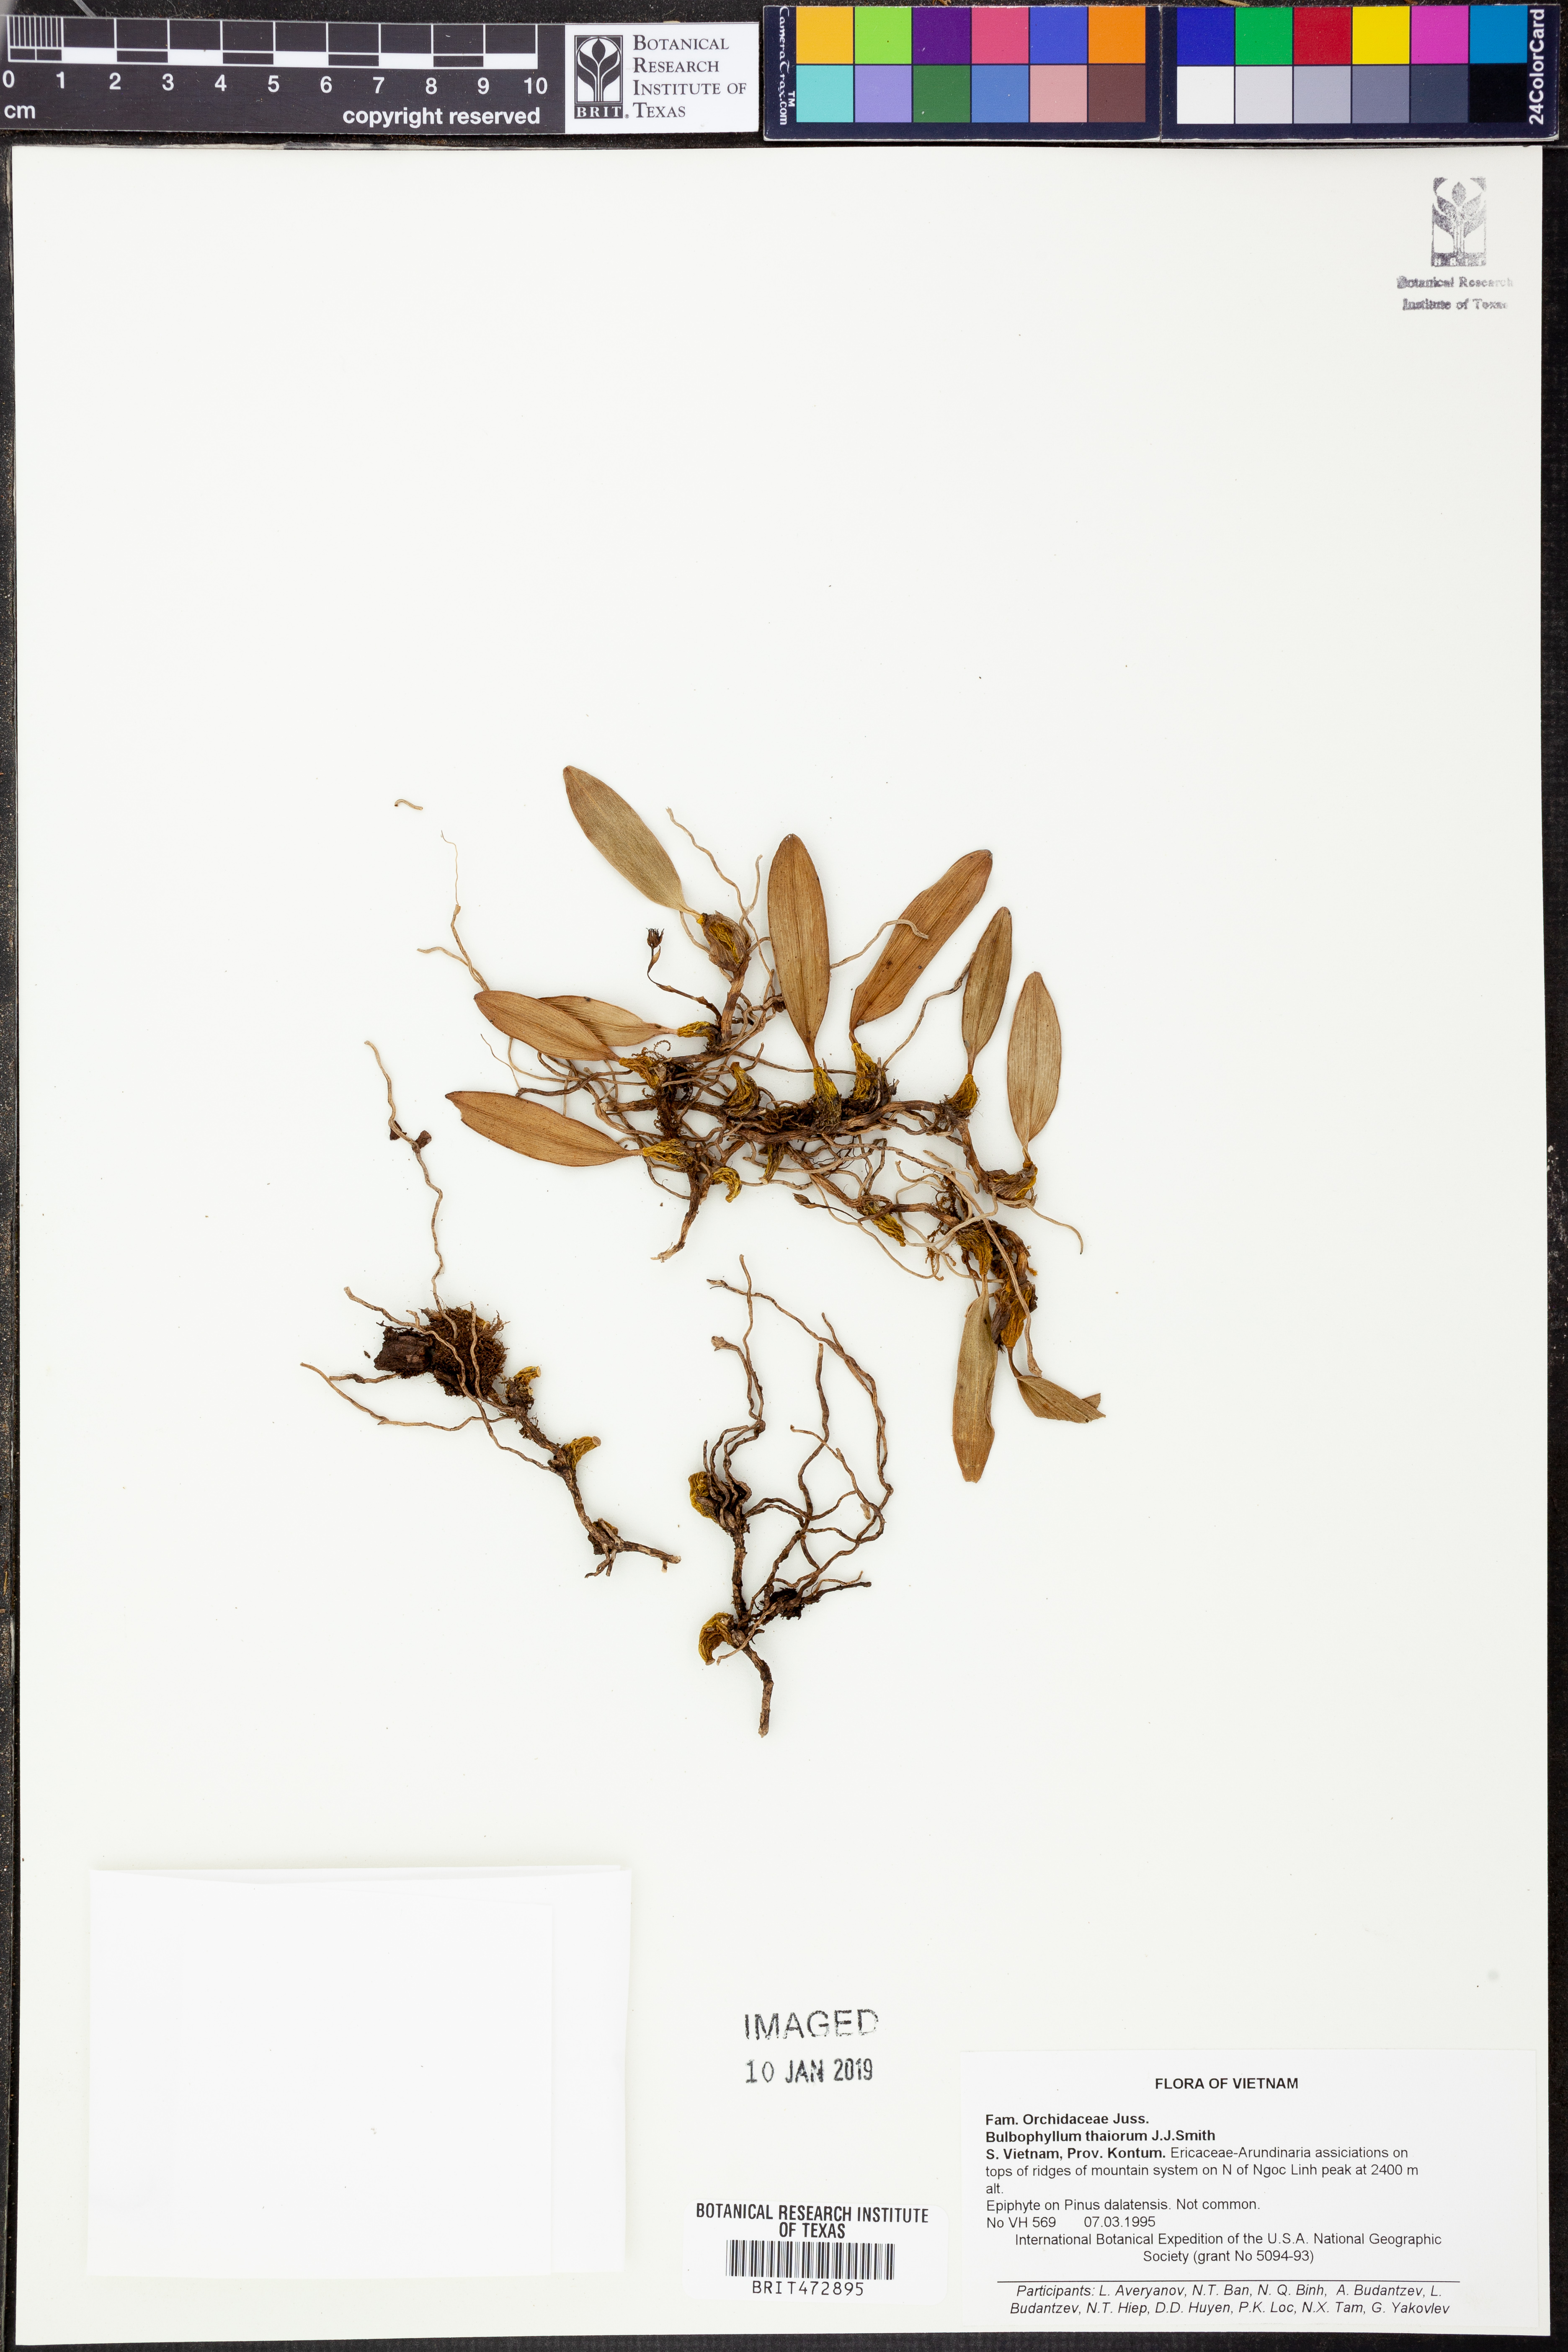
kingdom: Plantae
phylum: Tracheophyta
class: Liliopsida
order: Asparagales
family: Orchidaceae
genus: Bulbophyllum
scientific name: Bulbophyllum thaiorum
